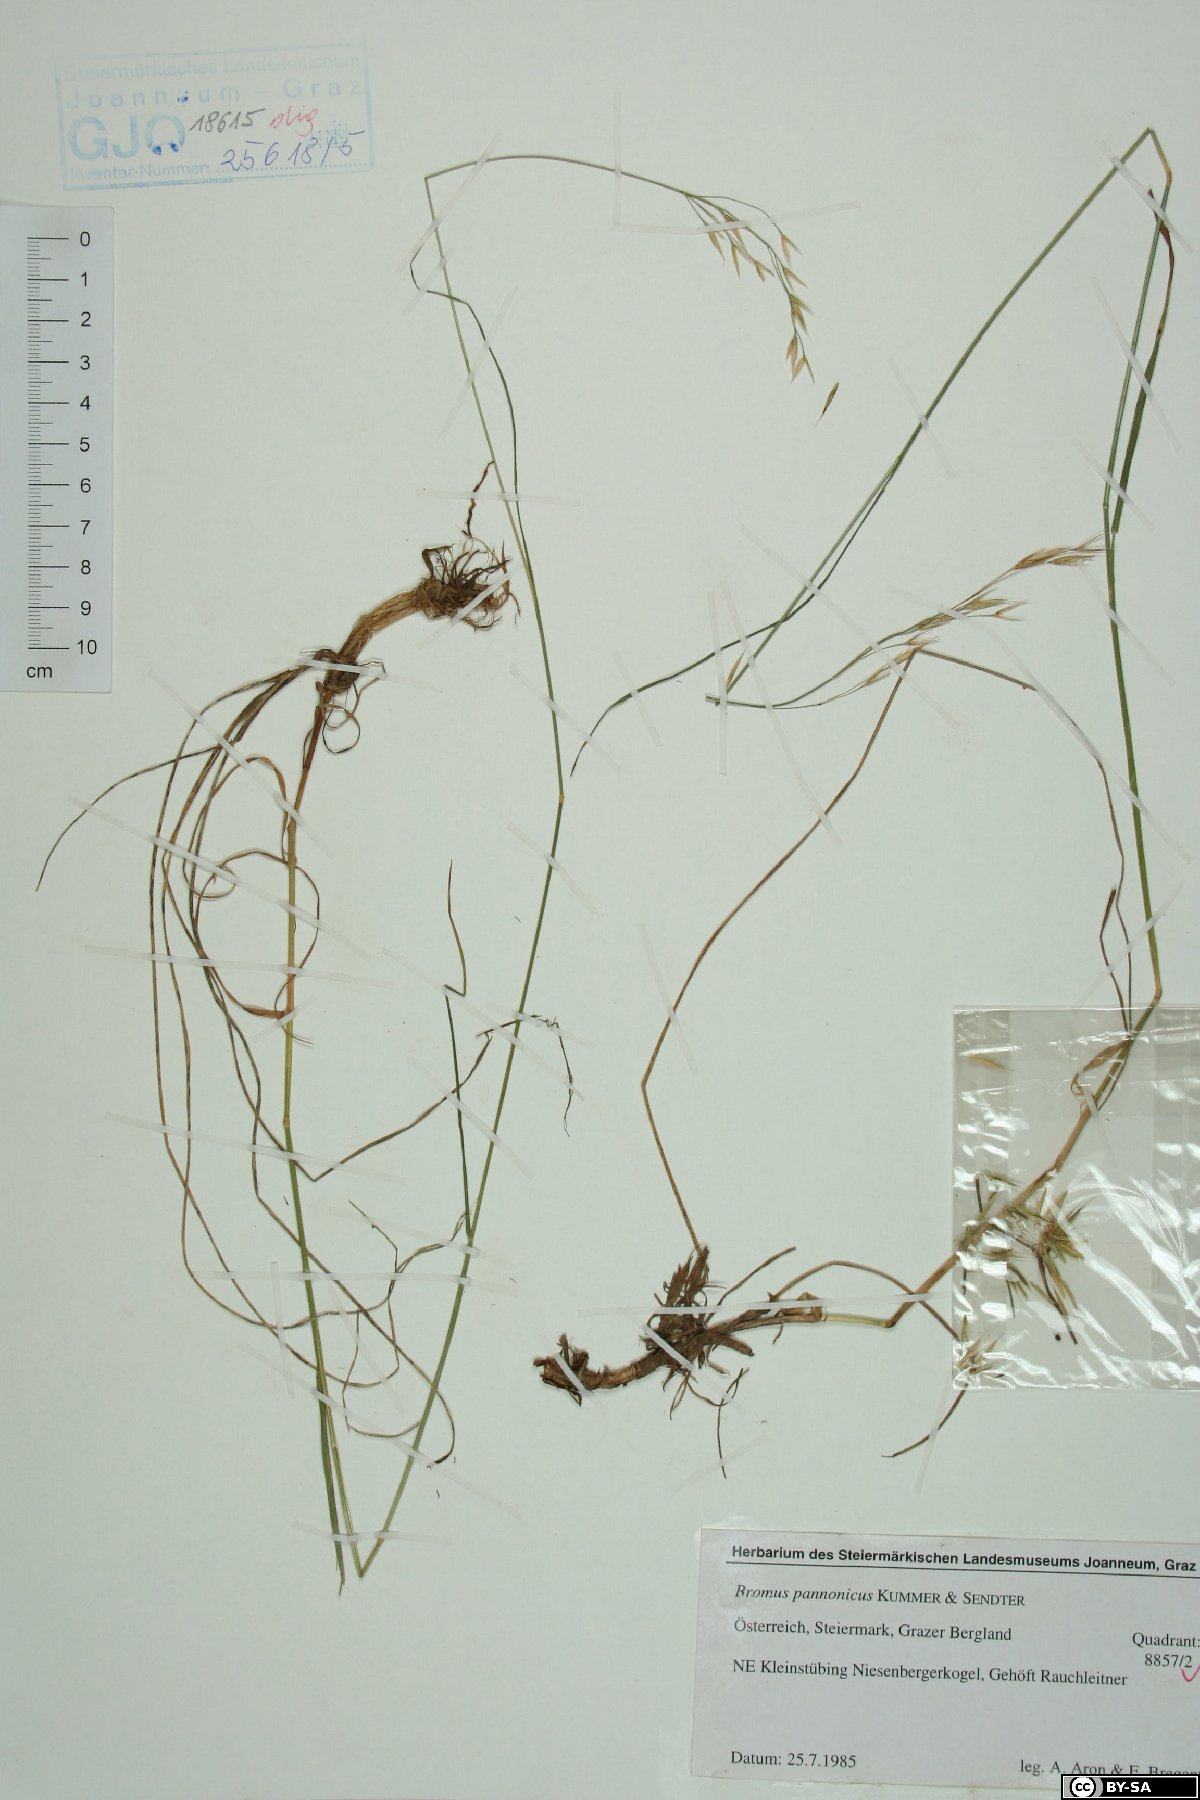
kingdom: Plantae
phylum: Tracheophyta
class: Liliopsida
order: Poales
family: Poaceae
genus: Bromus
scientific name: Bromus pannonicus
